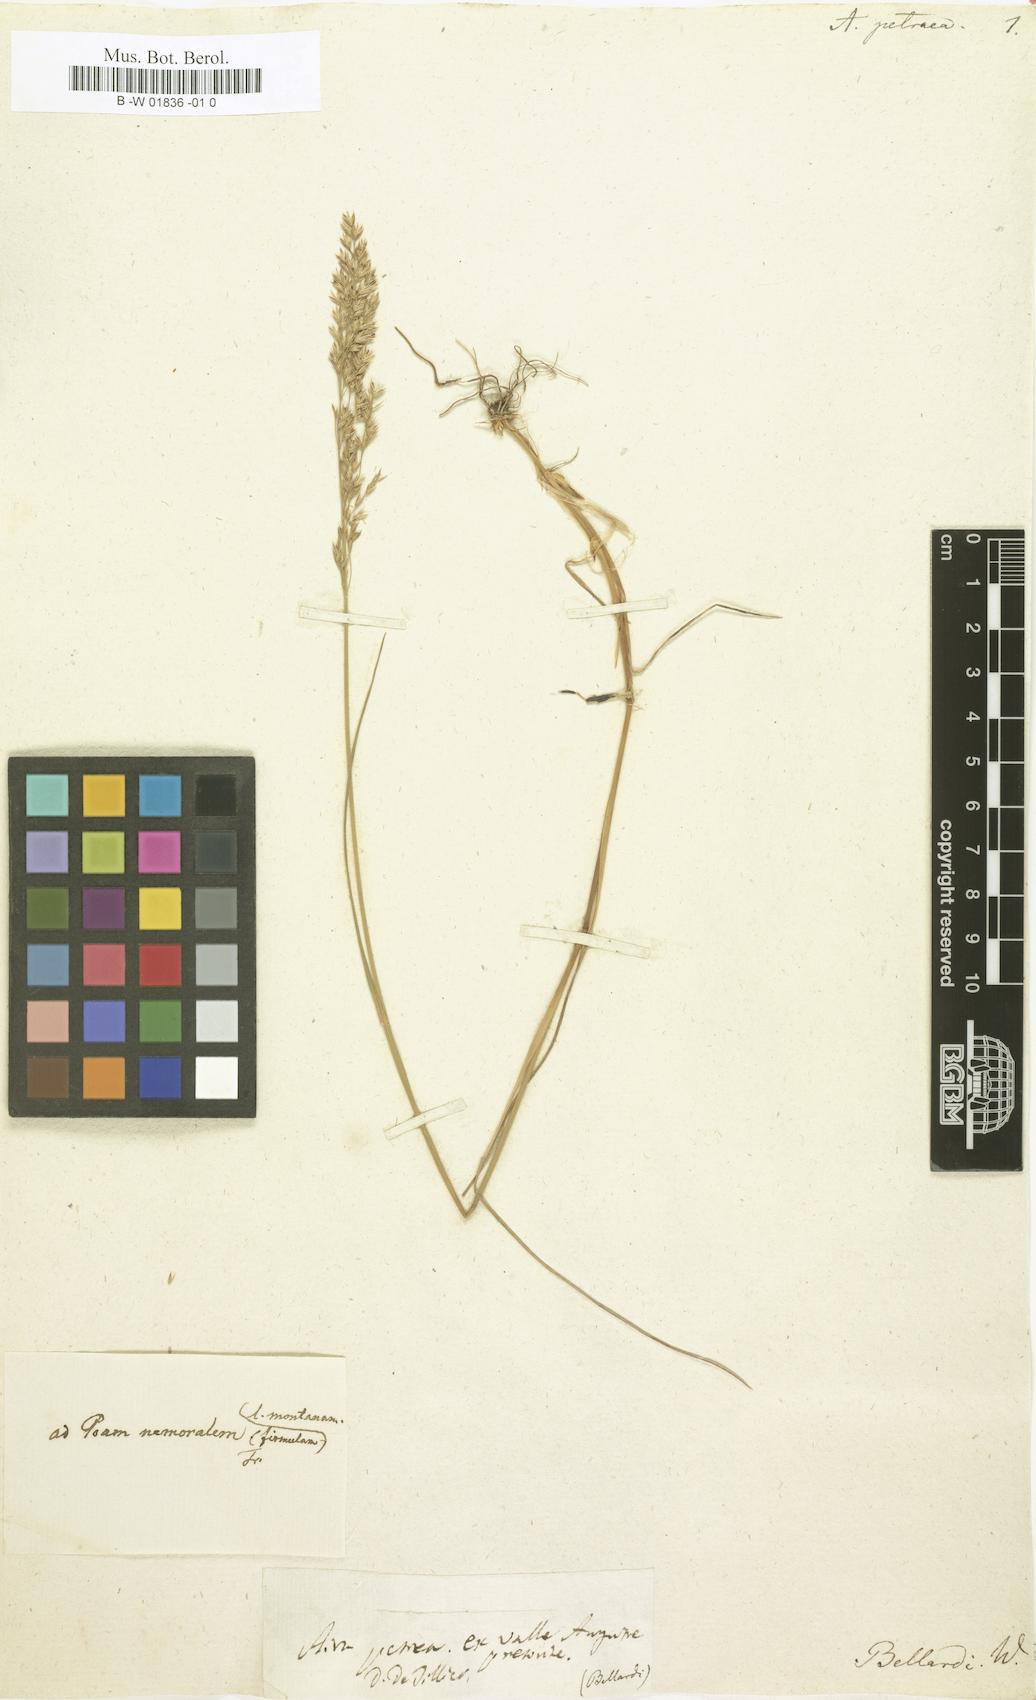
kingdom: Plantae
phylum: Tracheophyta
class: Liliopsida
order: Poales
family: Poaceae
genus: Poa
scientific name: Poa nemoralis
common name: Wood bluegrass
